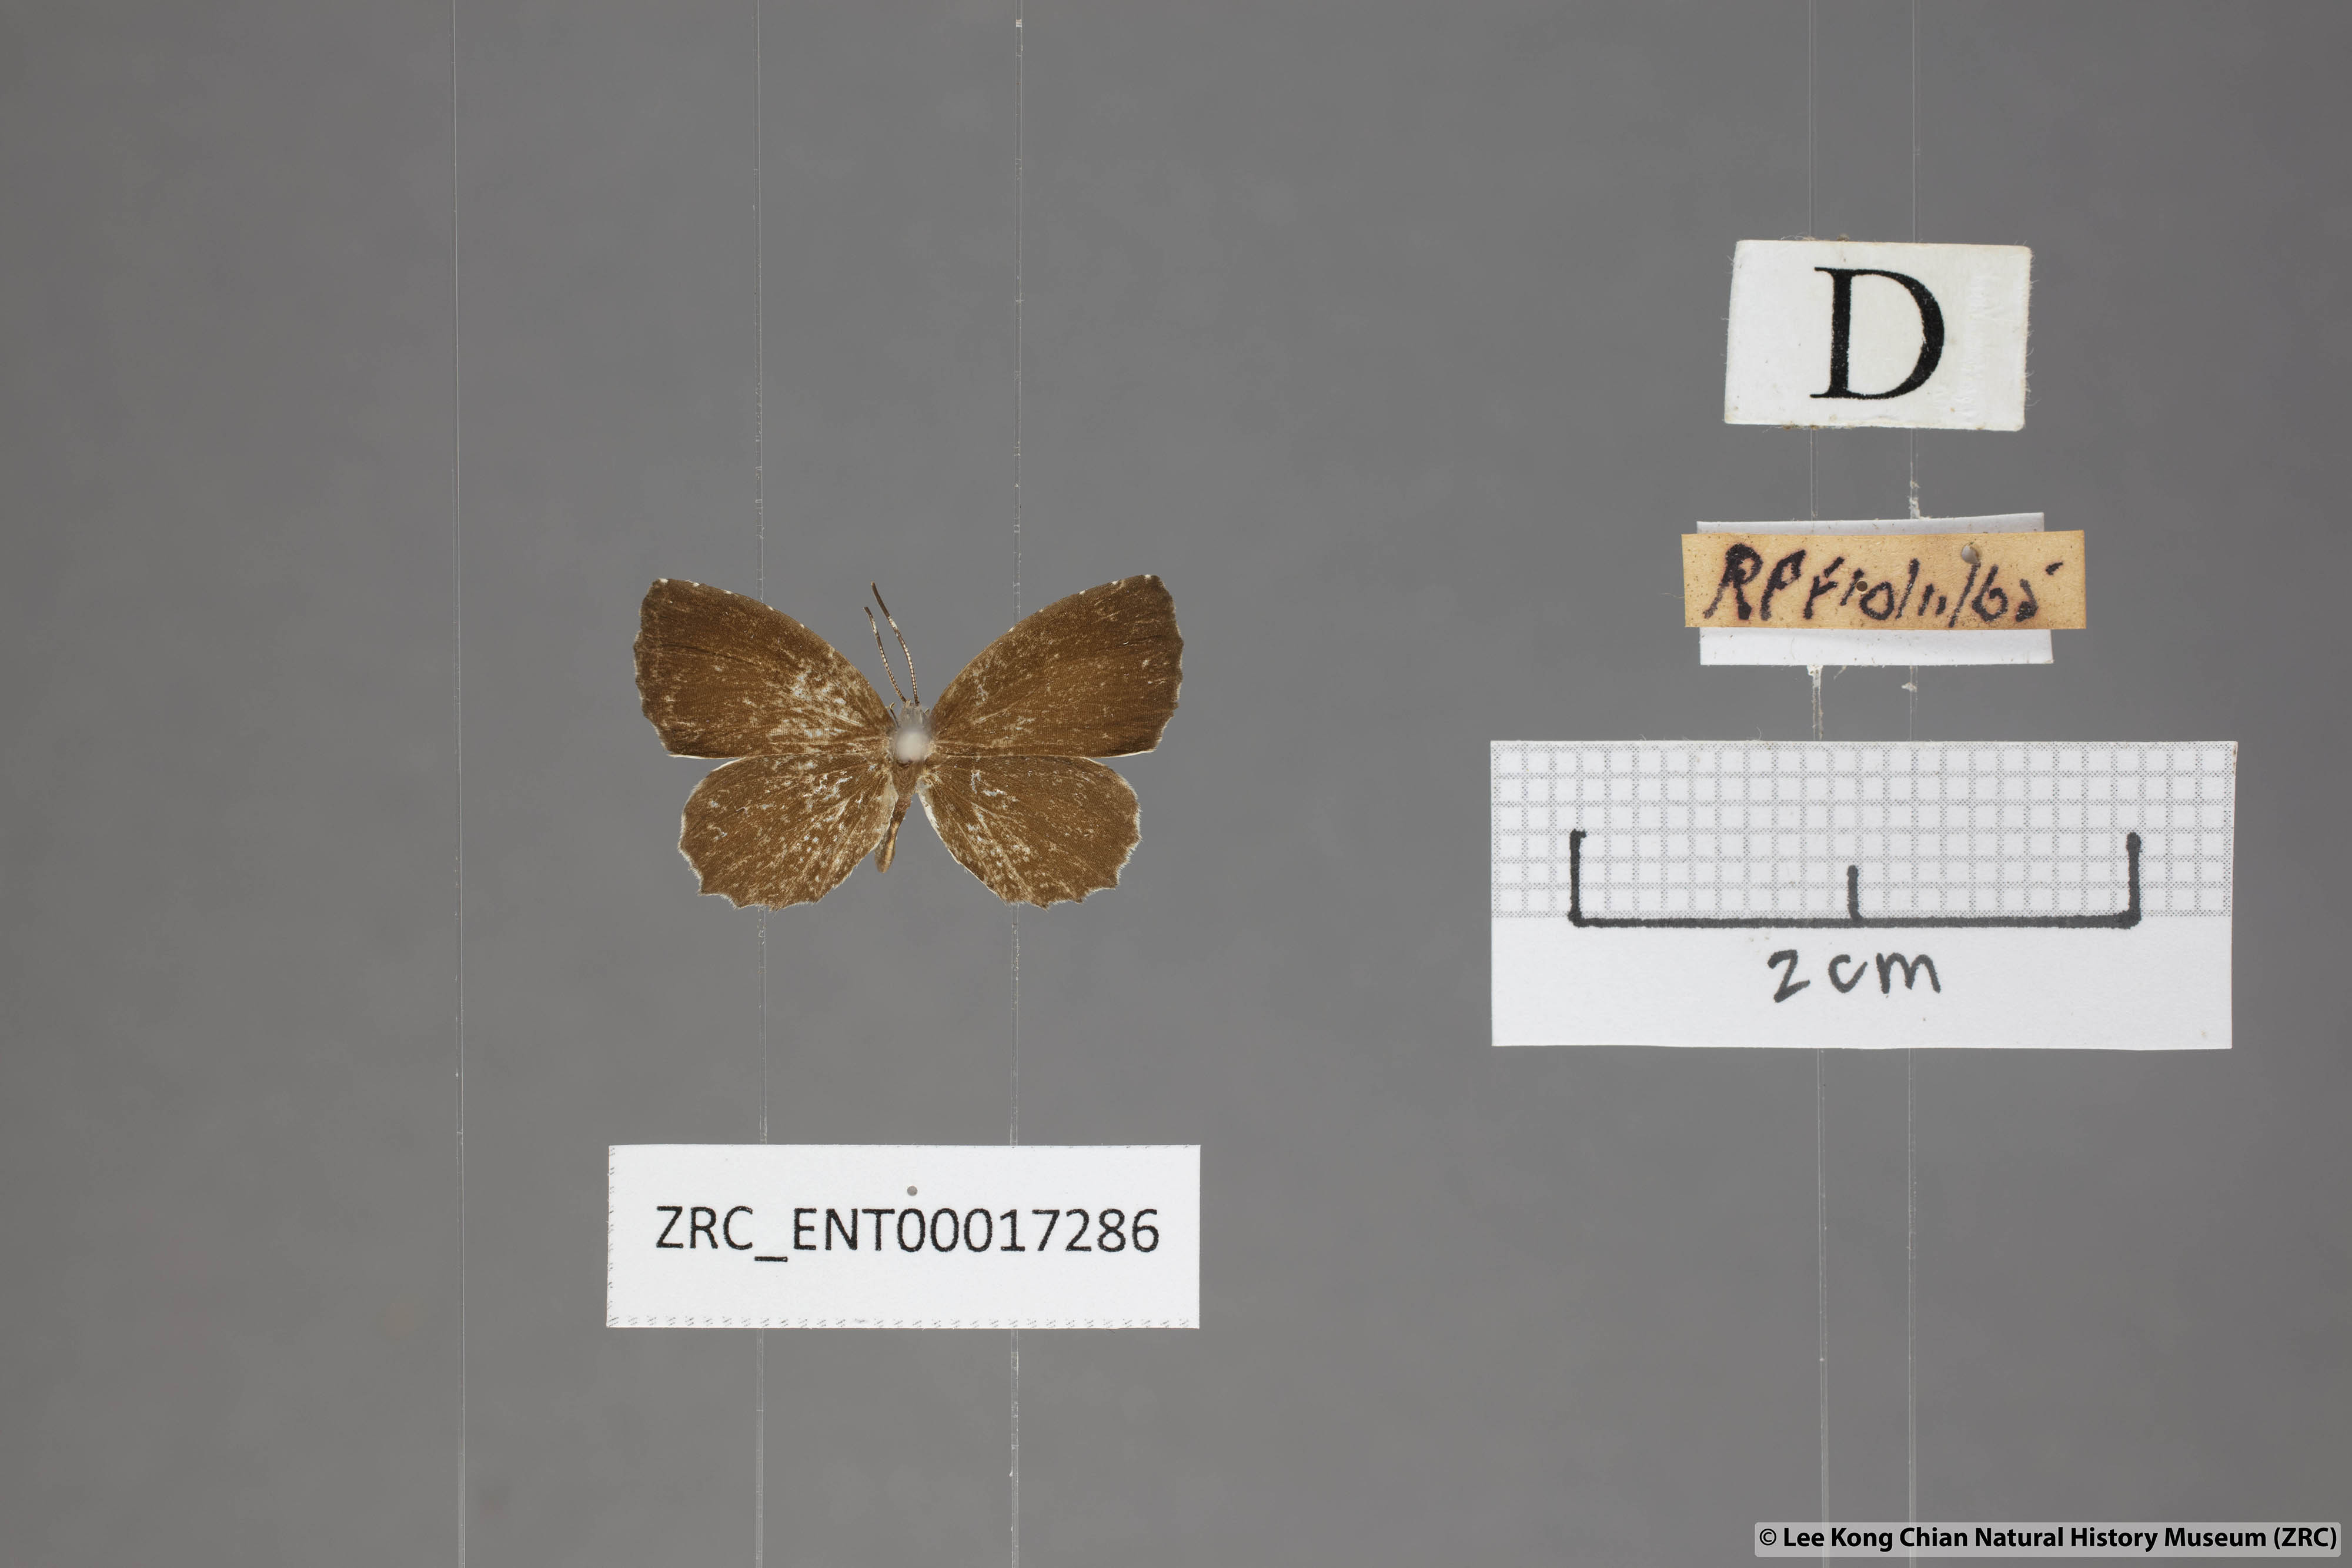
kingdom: Animalia
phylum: Arthropoda
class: Insecta
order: Lepidoptera
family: Lycaenidae
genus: Allotinus
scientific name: Allotinus substrigosa
